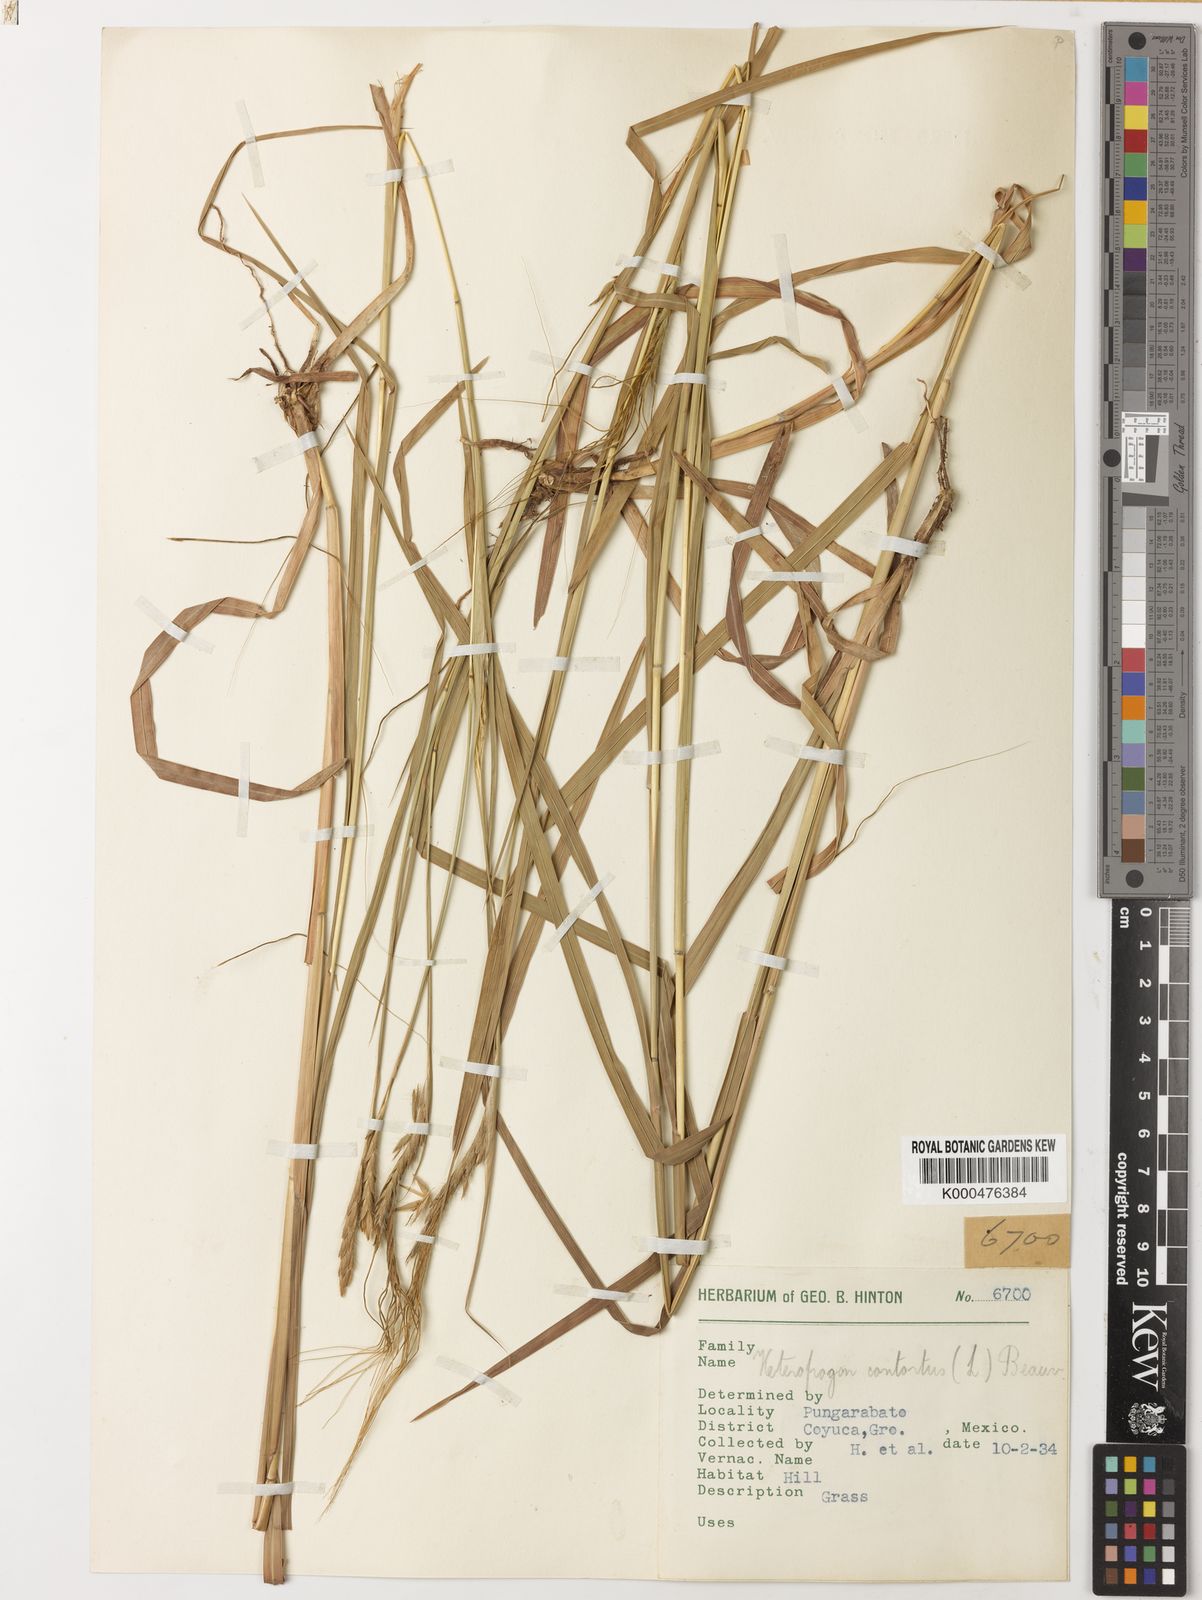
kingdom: Plantae
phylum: Tracheophyta
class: Liliopsida
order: Poales
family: Poaceae
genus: Heteropogon
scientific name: Heteropogon contortus
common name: Tanglehead
